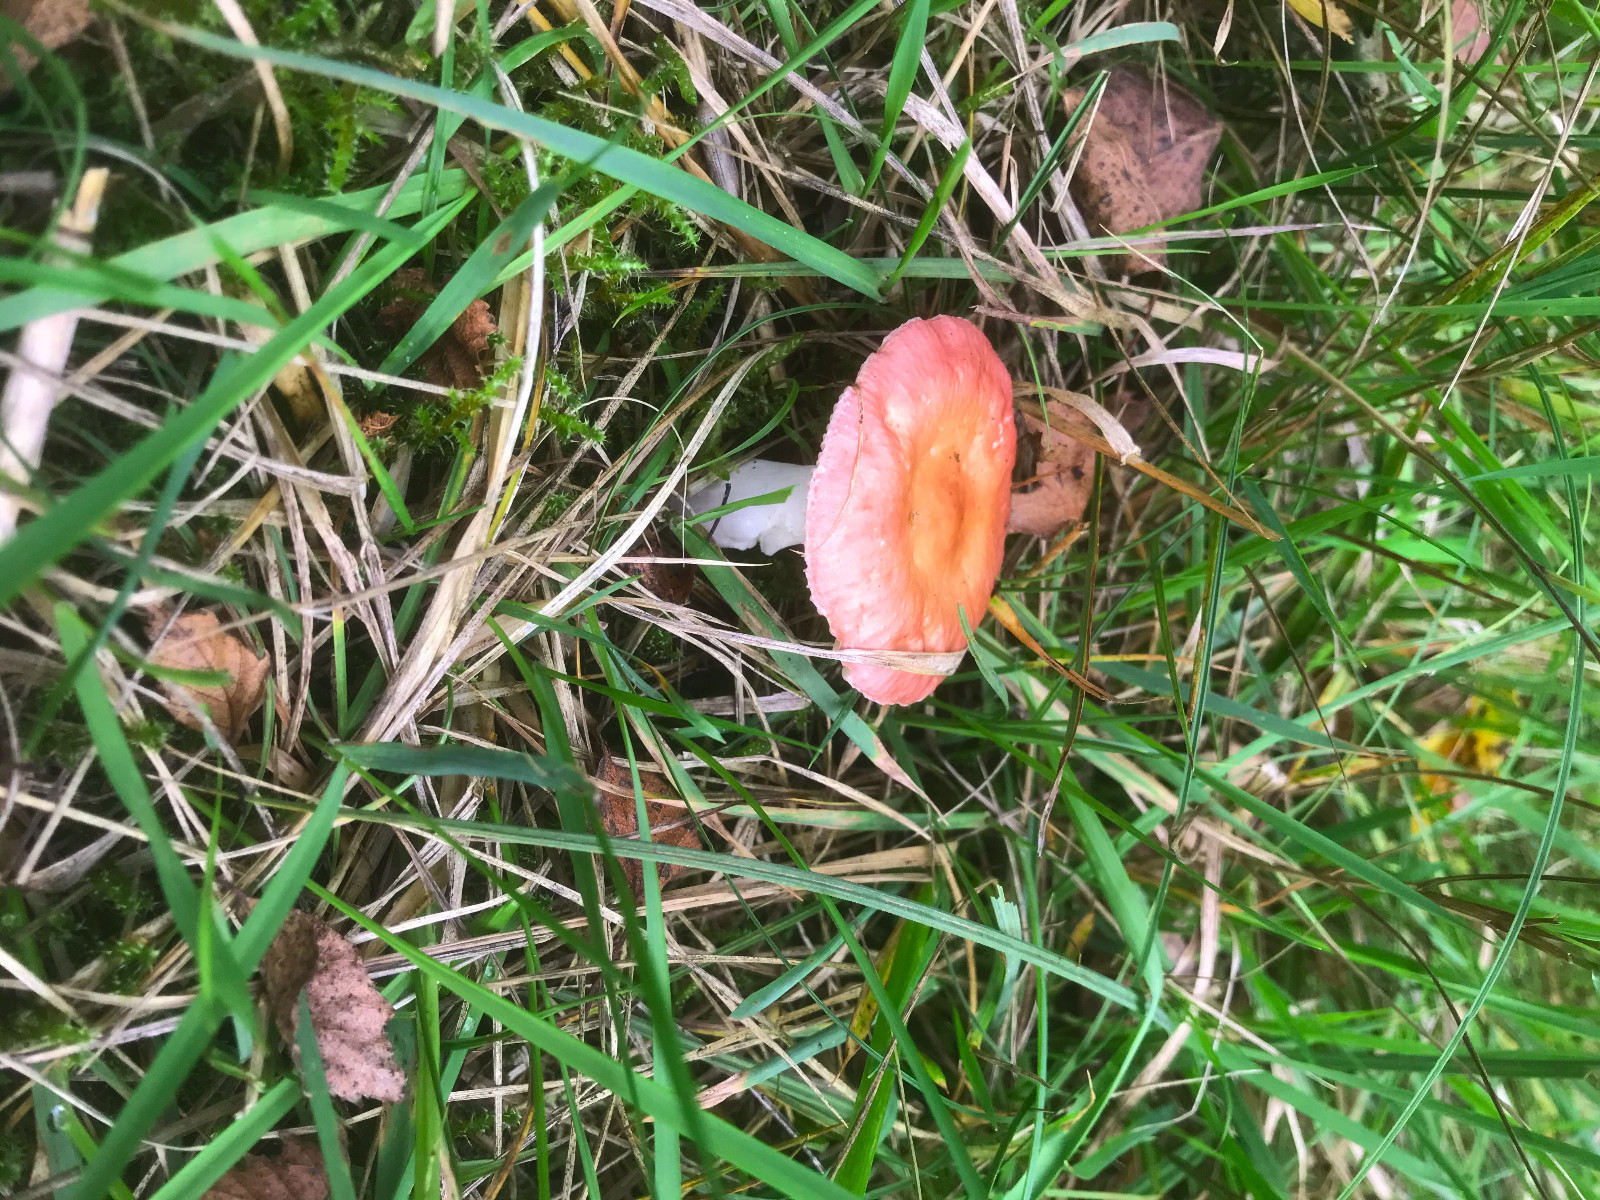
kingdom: Fungi
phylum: Basidiomycota
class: Agaricomycetes
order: Russulales
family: Russulaceae
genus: Russula
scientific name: Russula velenovskyi
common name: orangerød skørhat
